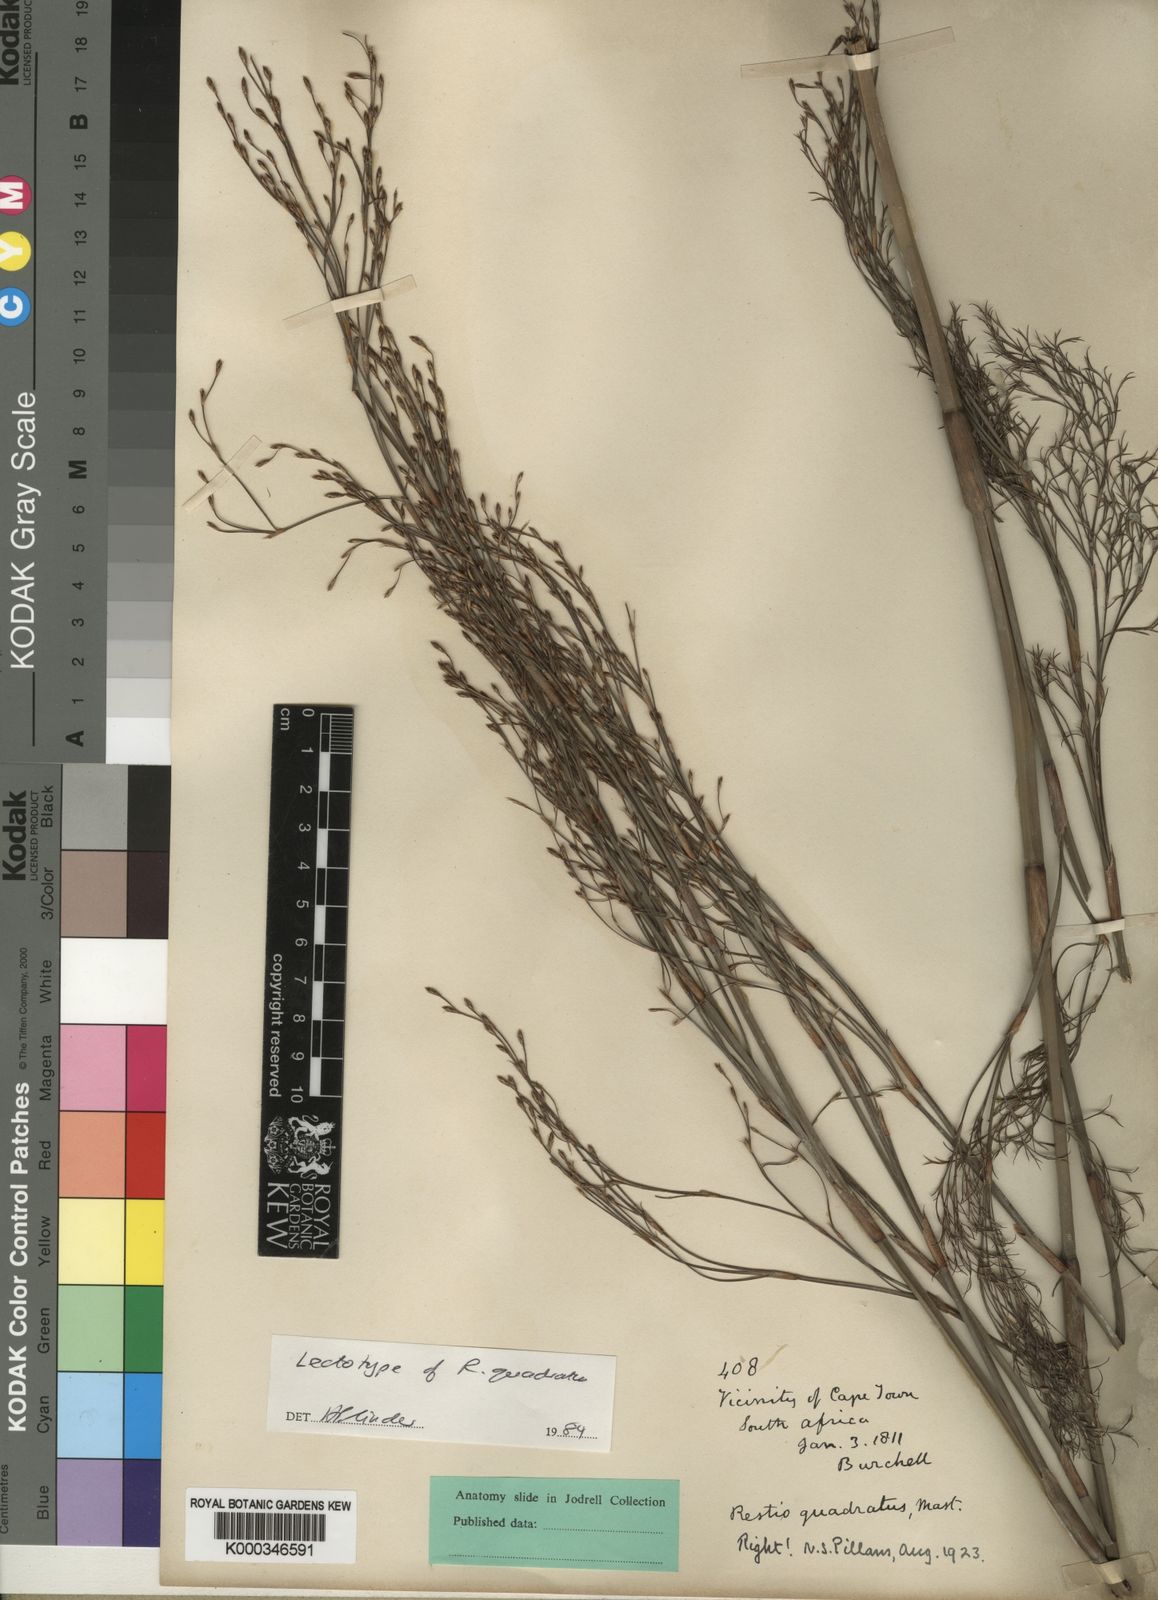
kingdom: Plantae
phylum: Tracheophyta
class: Liliopsida
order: Poales
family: Restionaceae
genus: Restio
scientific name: Restio quadratus
